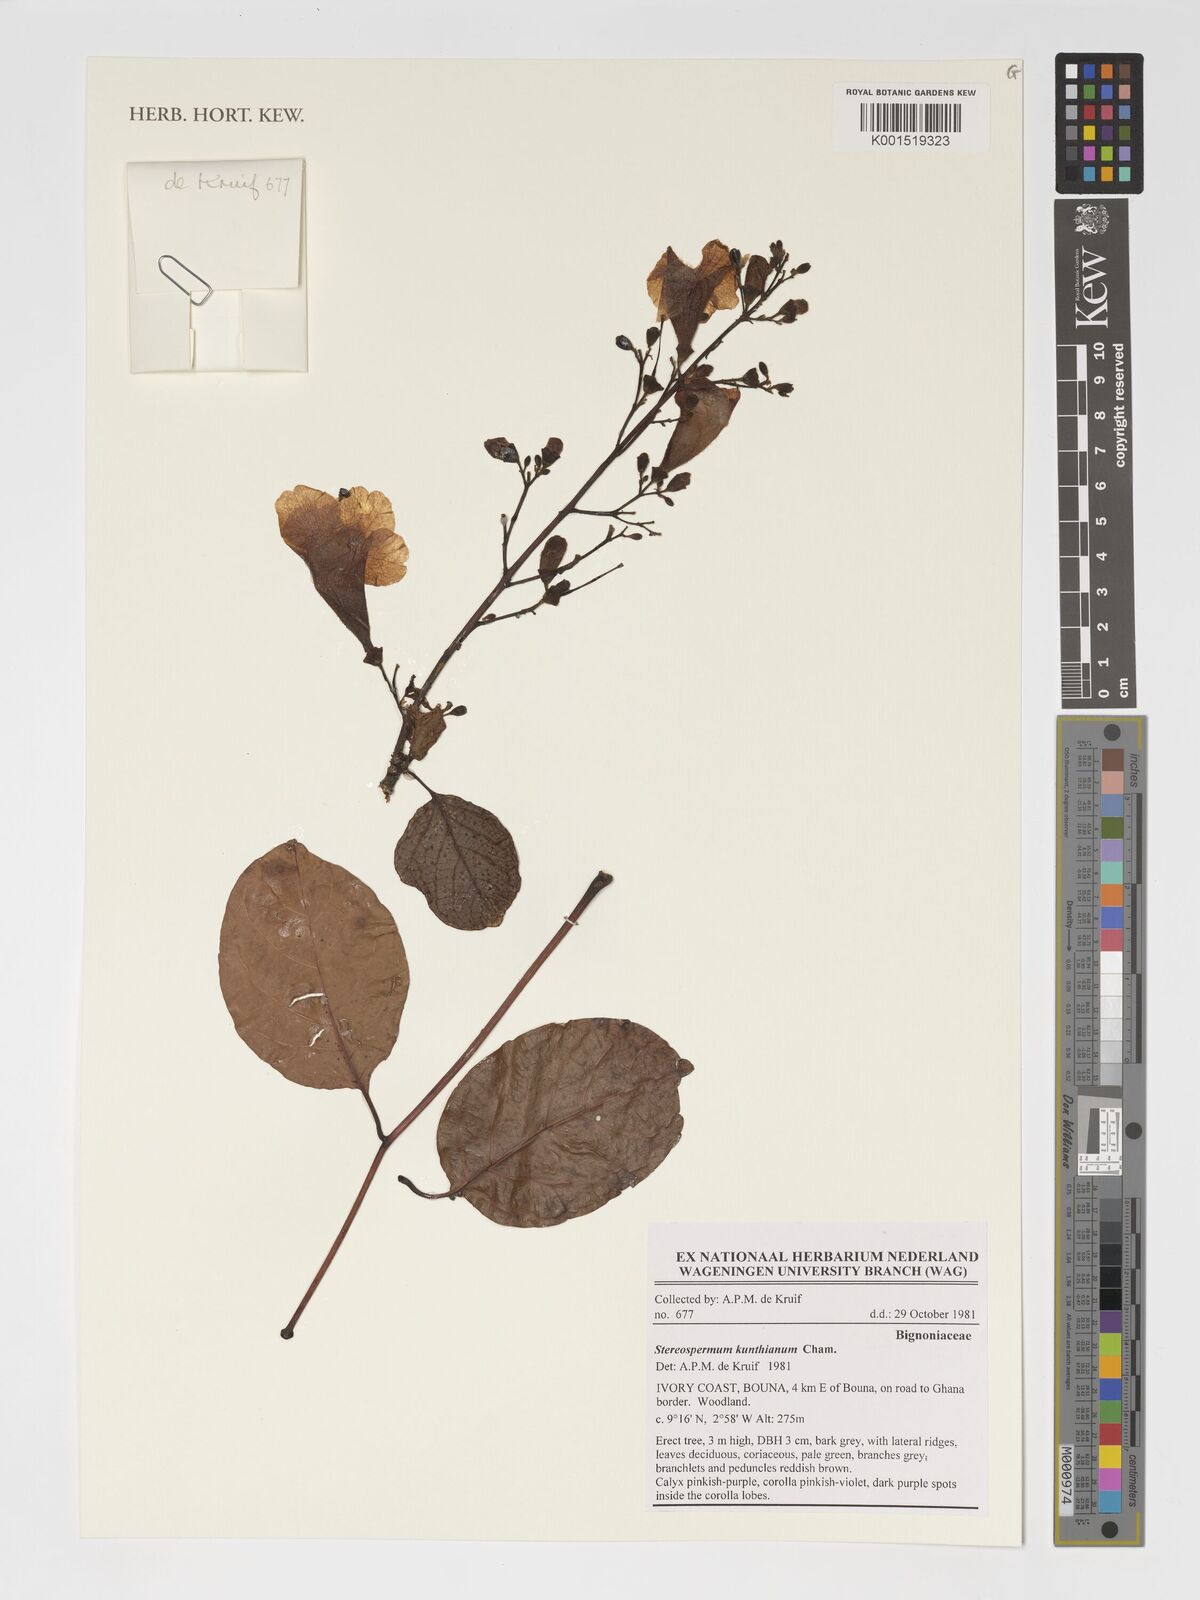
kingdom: Plantae
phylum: Tracheophyta
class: Magnoliopsida
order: Lamiales
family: Bignoniaceae
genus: Stereospermum
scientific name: Stereospermum kunthianum
